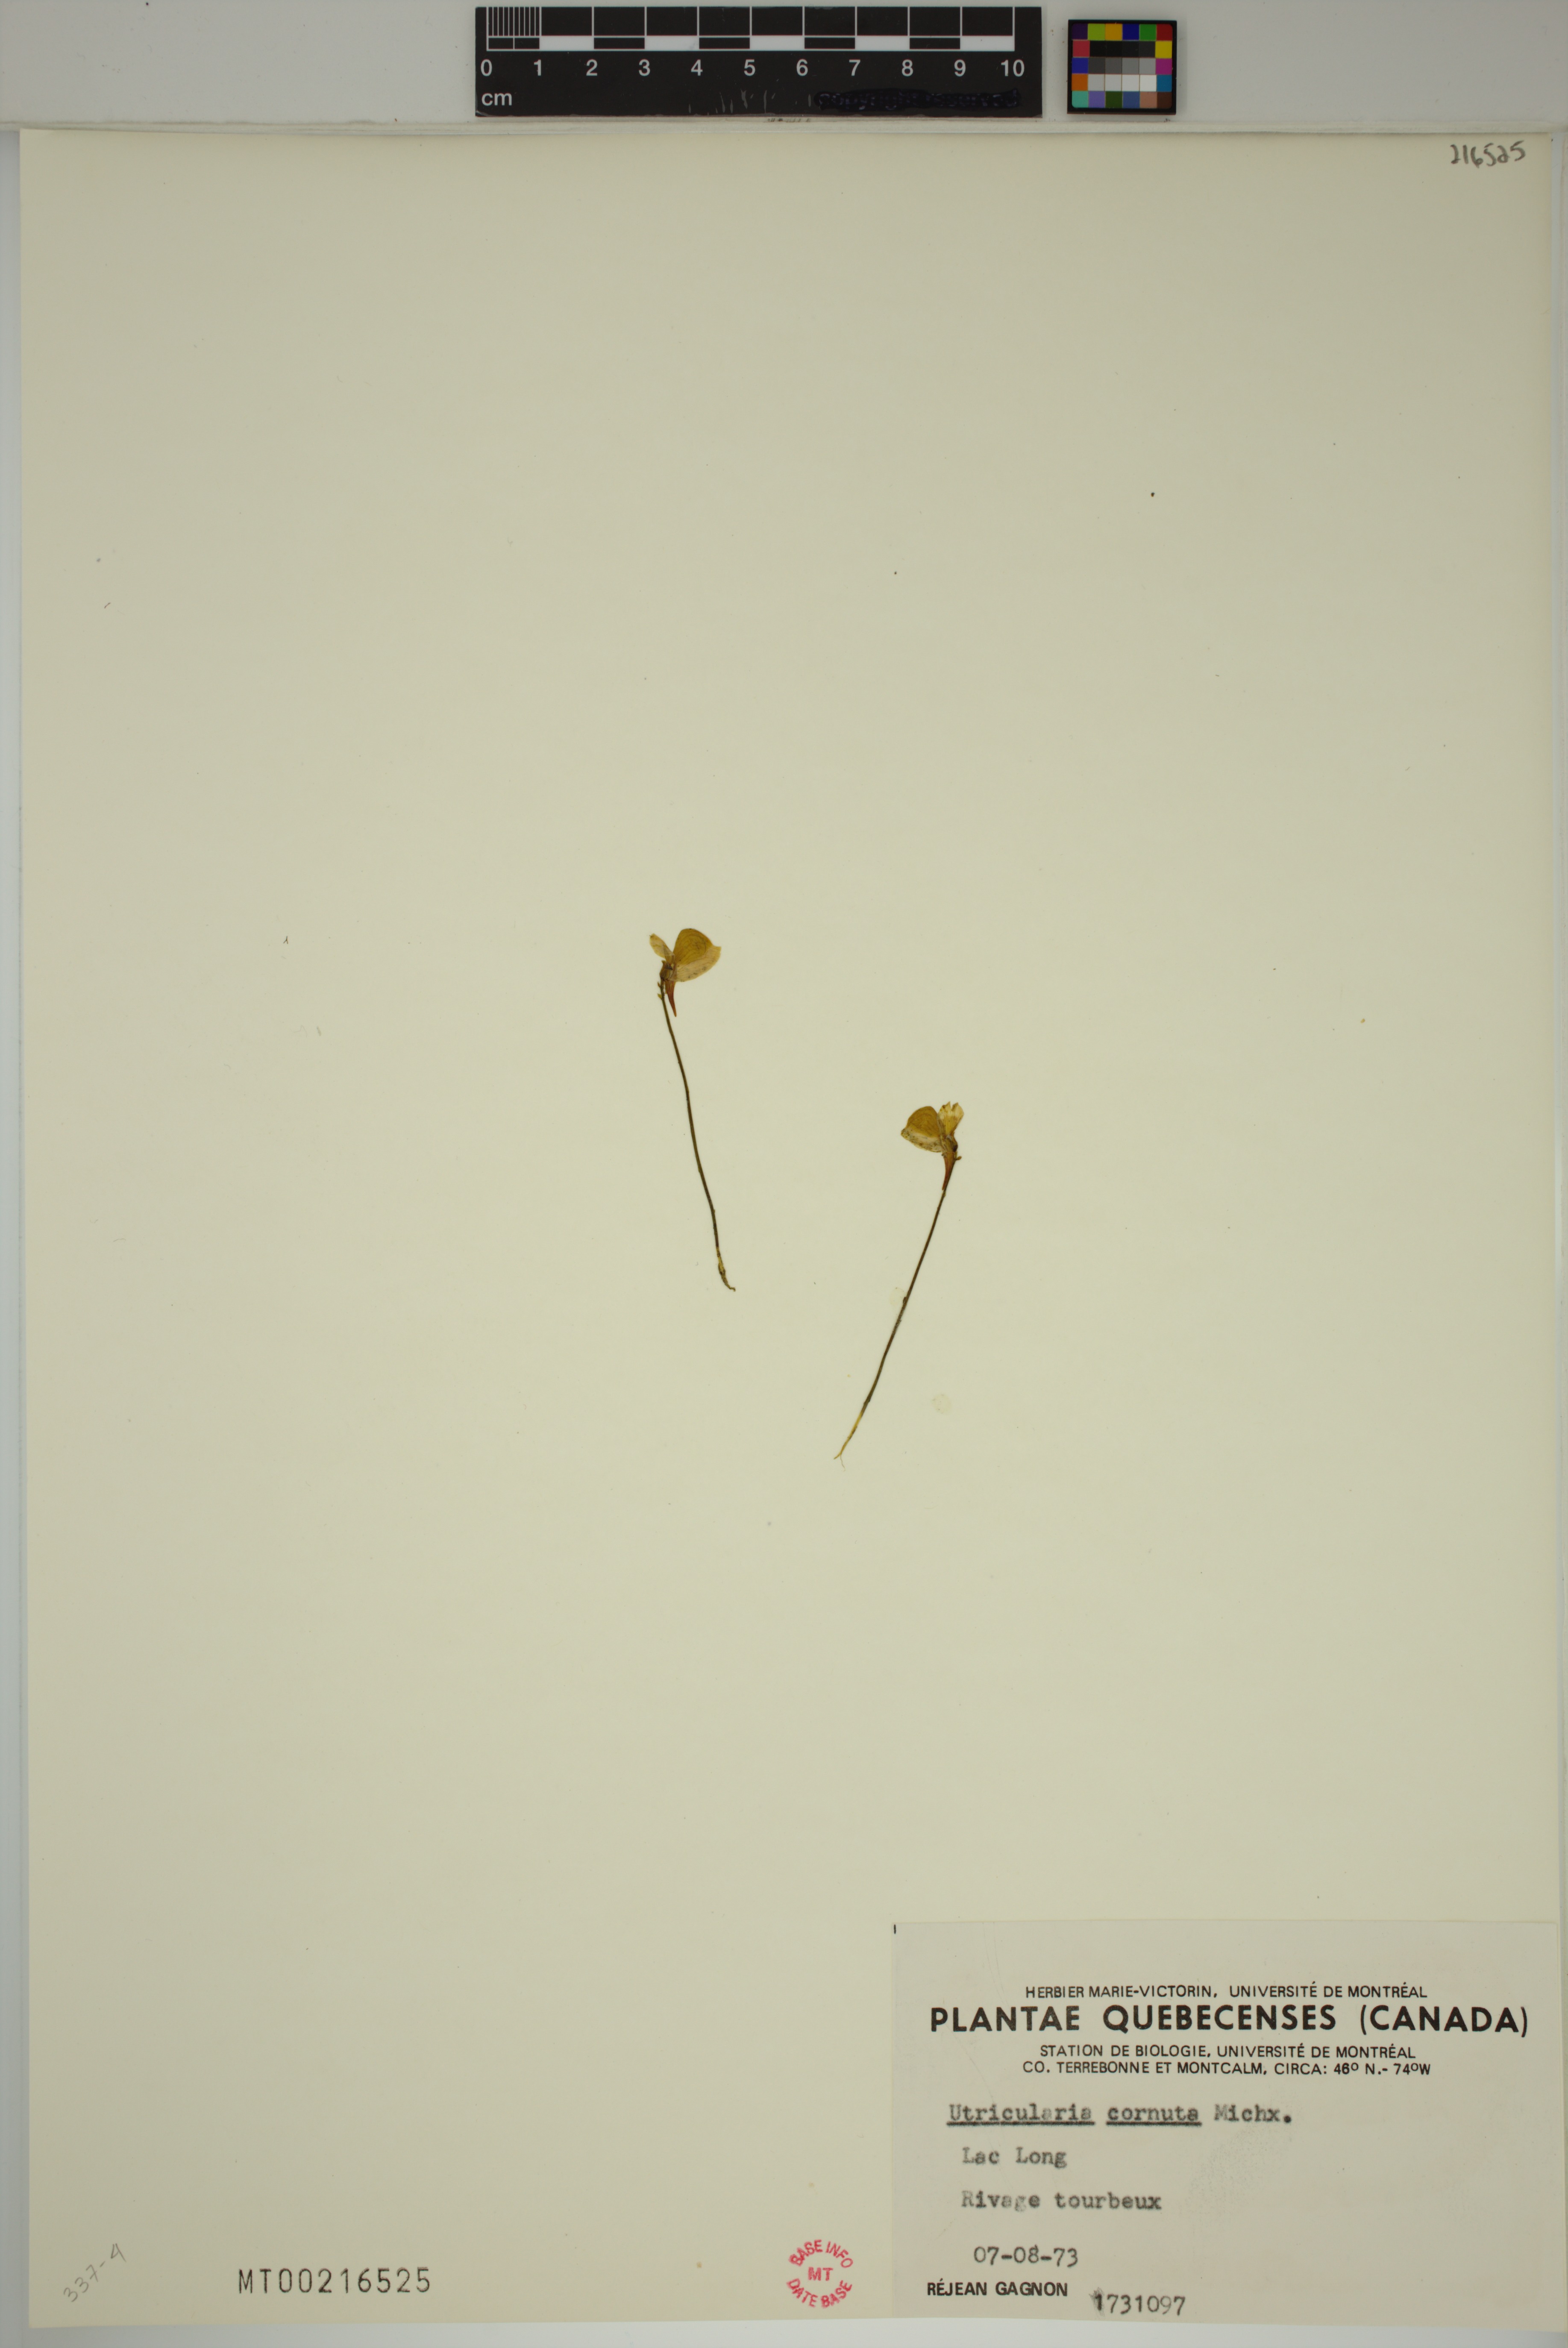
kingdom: Plantae
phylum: Tracheophyta
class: Magnoliopsida
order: Lamiales
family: Lentibulariaceae
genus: Utricularia
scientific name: Utricularia cornuta
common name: Horned bladderwort
